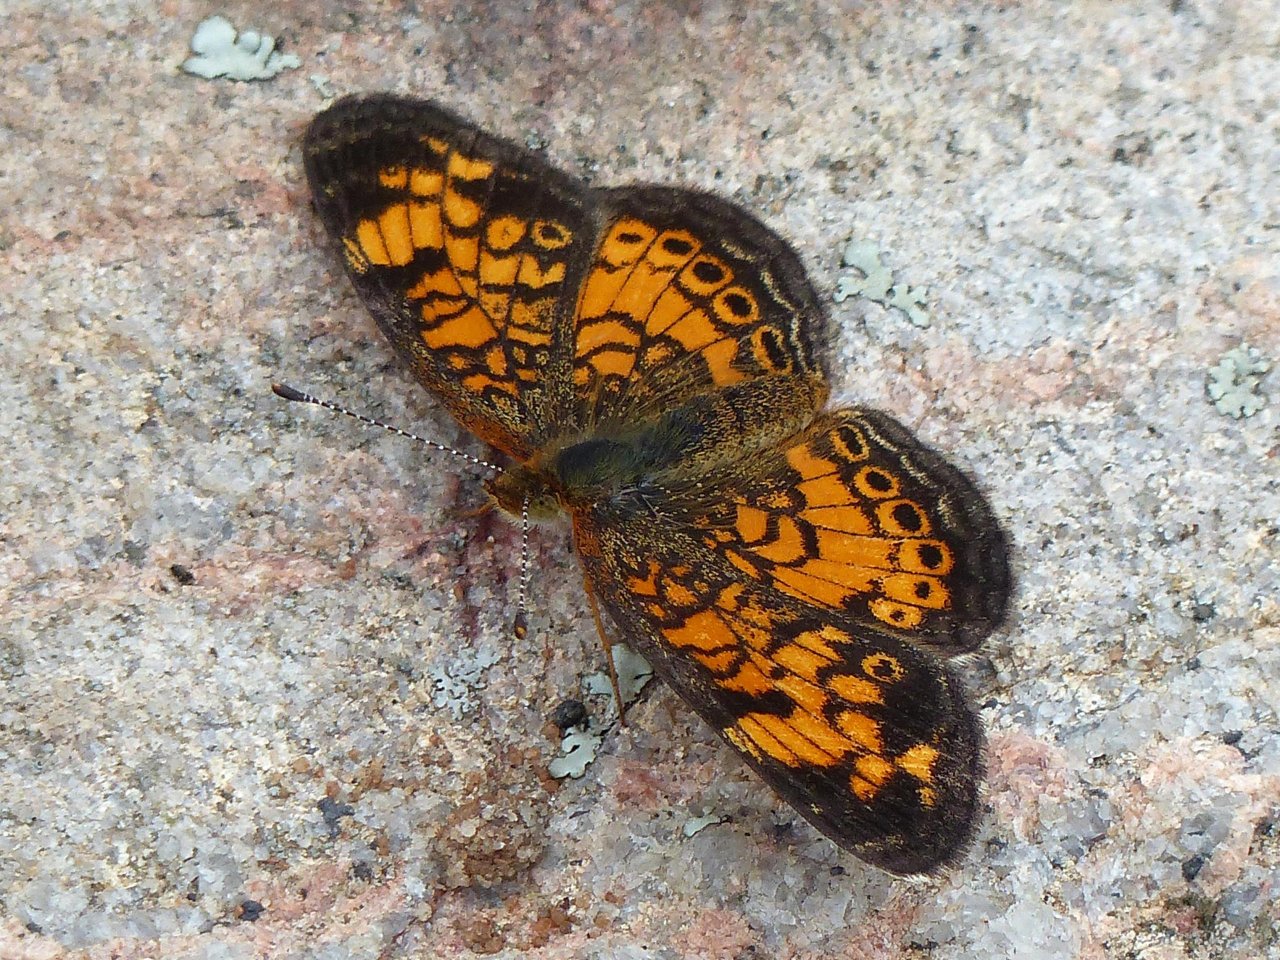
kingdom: Animalia
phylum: Arthropoda
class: Insecta
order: Lepidoptera
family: Nymphalidae
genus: Phyciodes
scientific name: Phyciodes tharos
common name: Pearl Crescent
